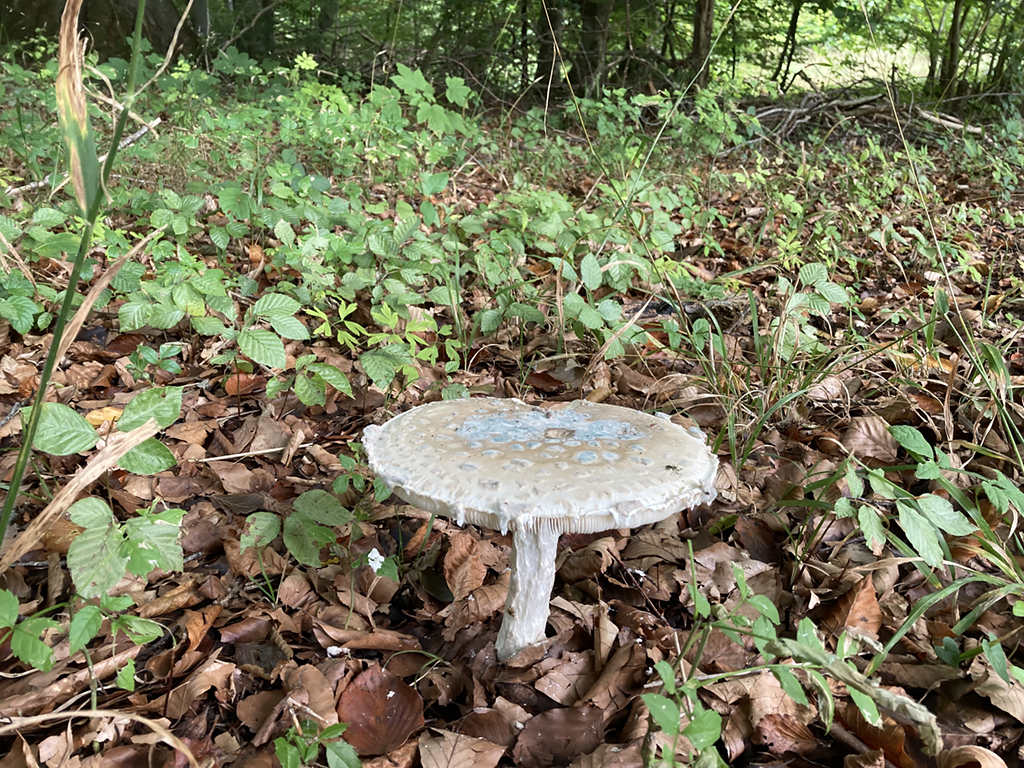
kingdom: Fungi
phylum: Basidiomycota
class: Agaricomycetes
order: Agaricales
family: Amanitaceae
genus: Amanita
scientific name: Amanita
